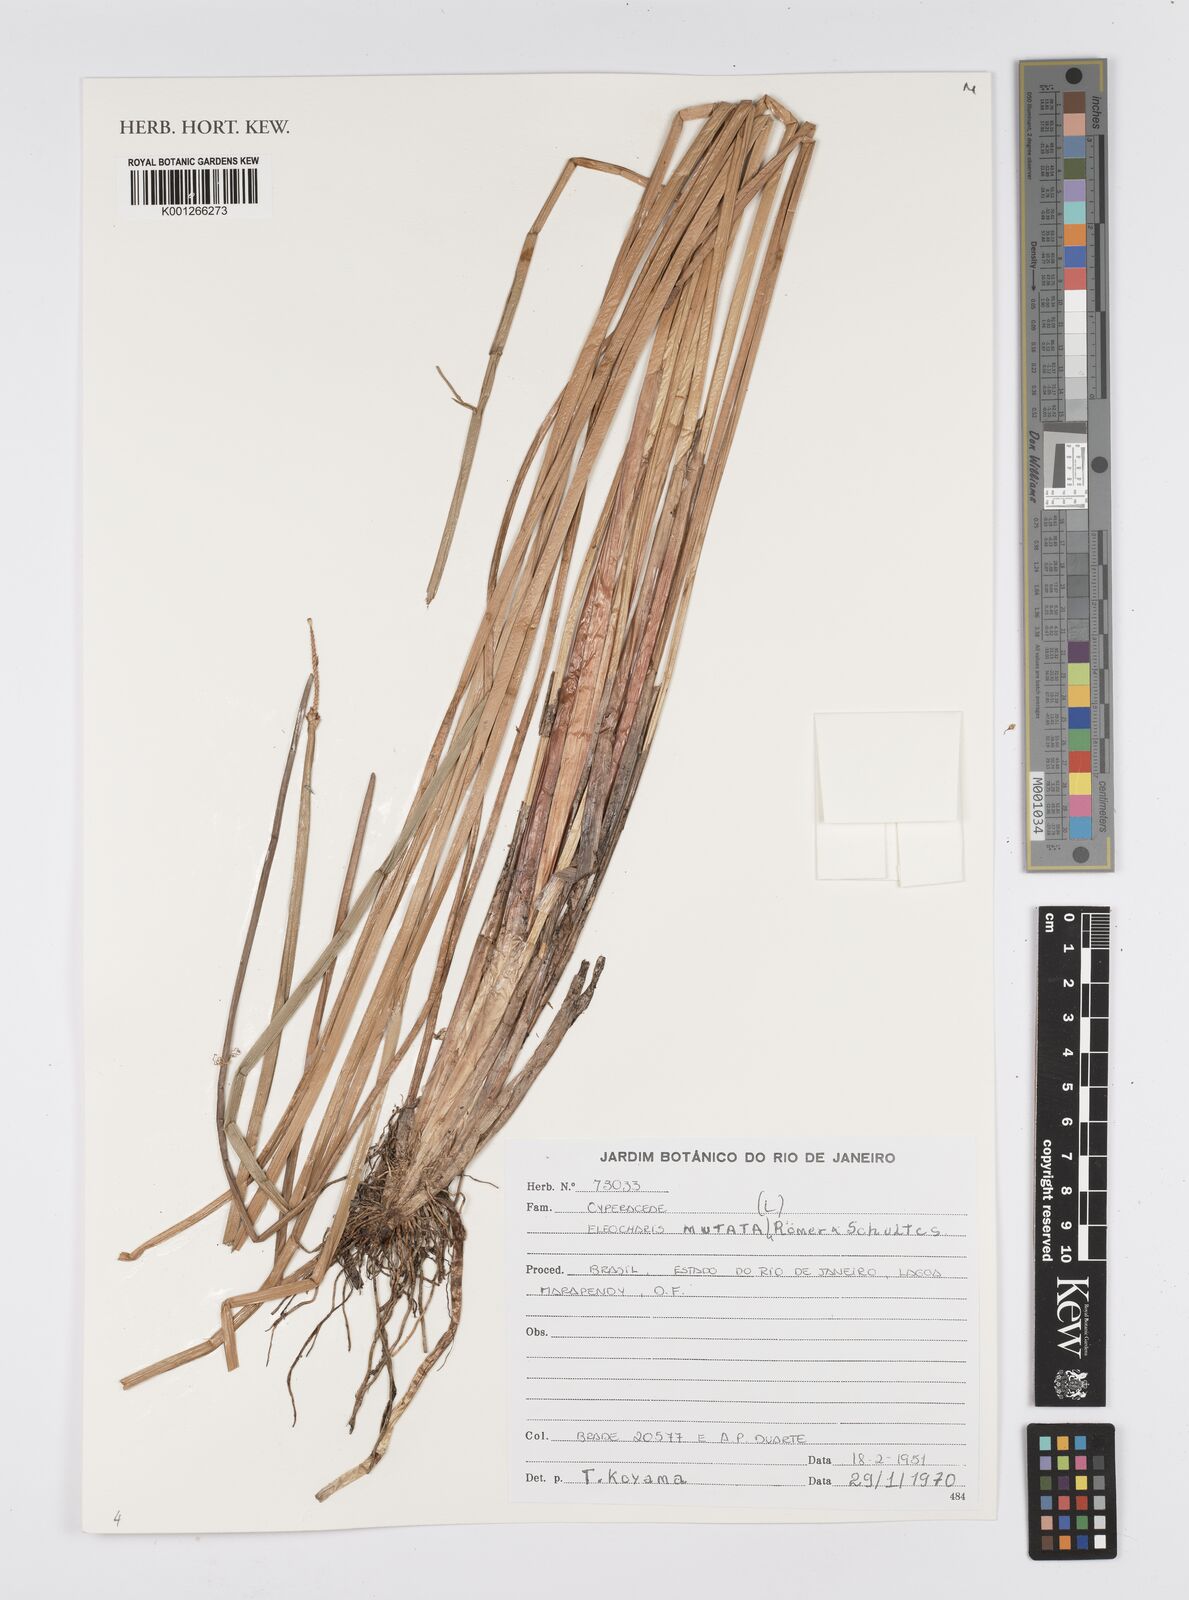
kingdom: Plantae
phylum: Tracheophyta
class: Liliopsida
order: Poales
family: Cyperaceae
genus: Eleocharis
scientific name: Eleocharis mutata
